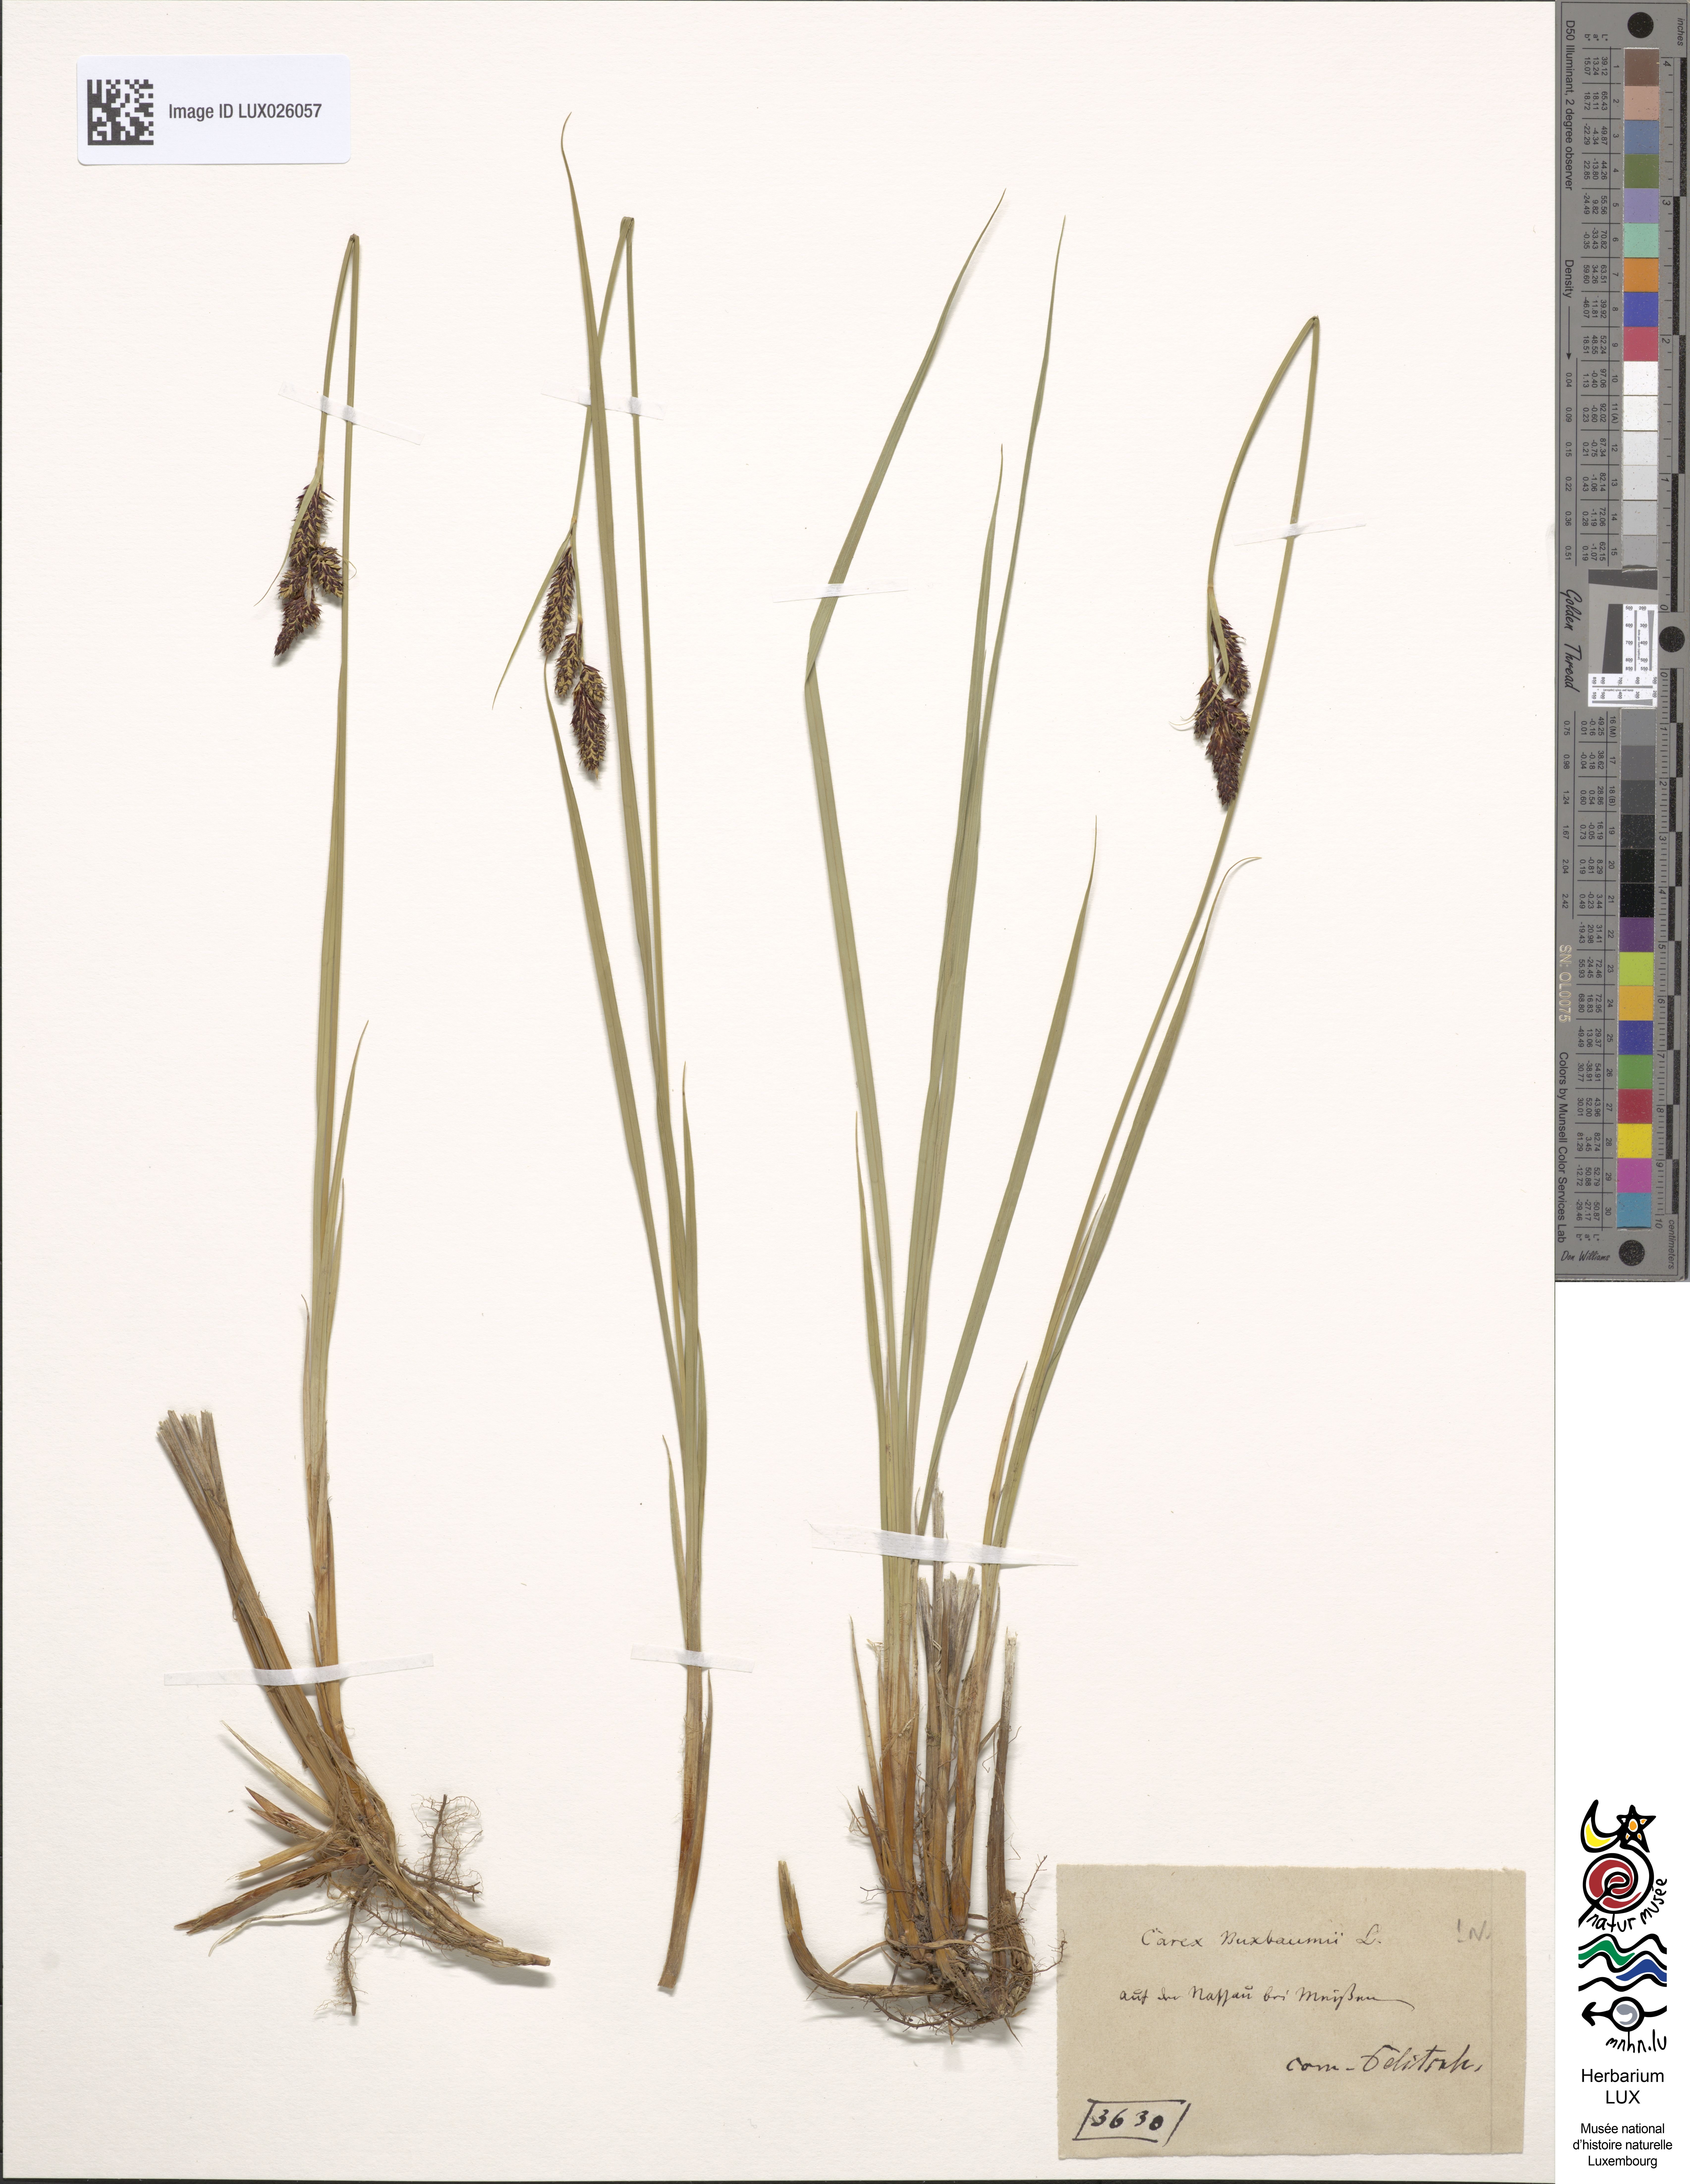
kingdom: Plantae
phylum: Tracheophyta
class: Liliopsida
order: Poales
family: Cyperaceae
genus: Carex
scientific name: Carex buxbaumii
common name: Club sedge
